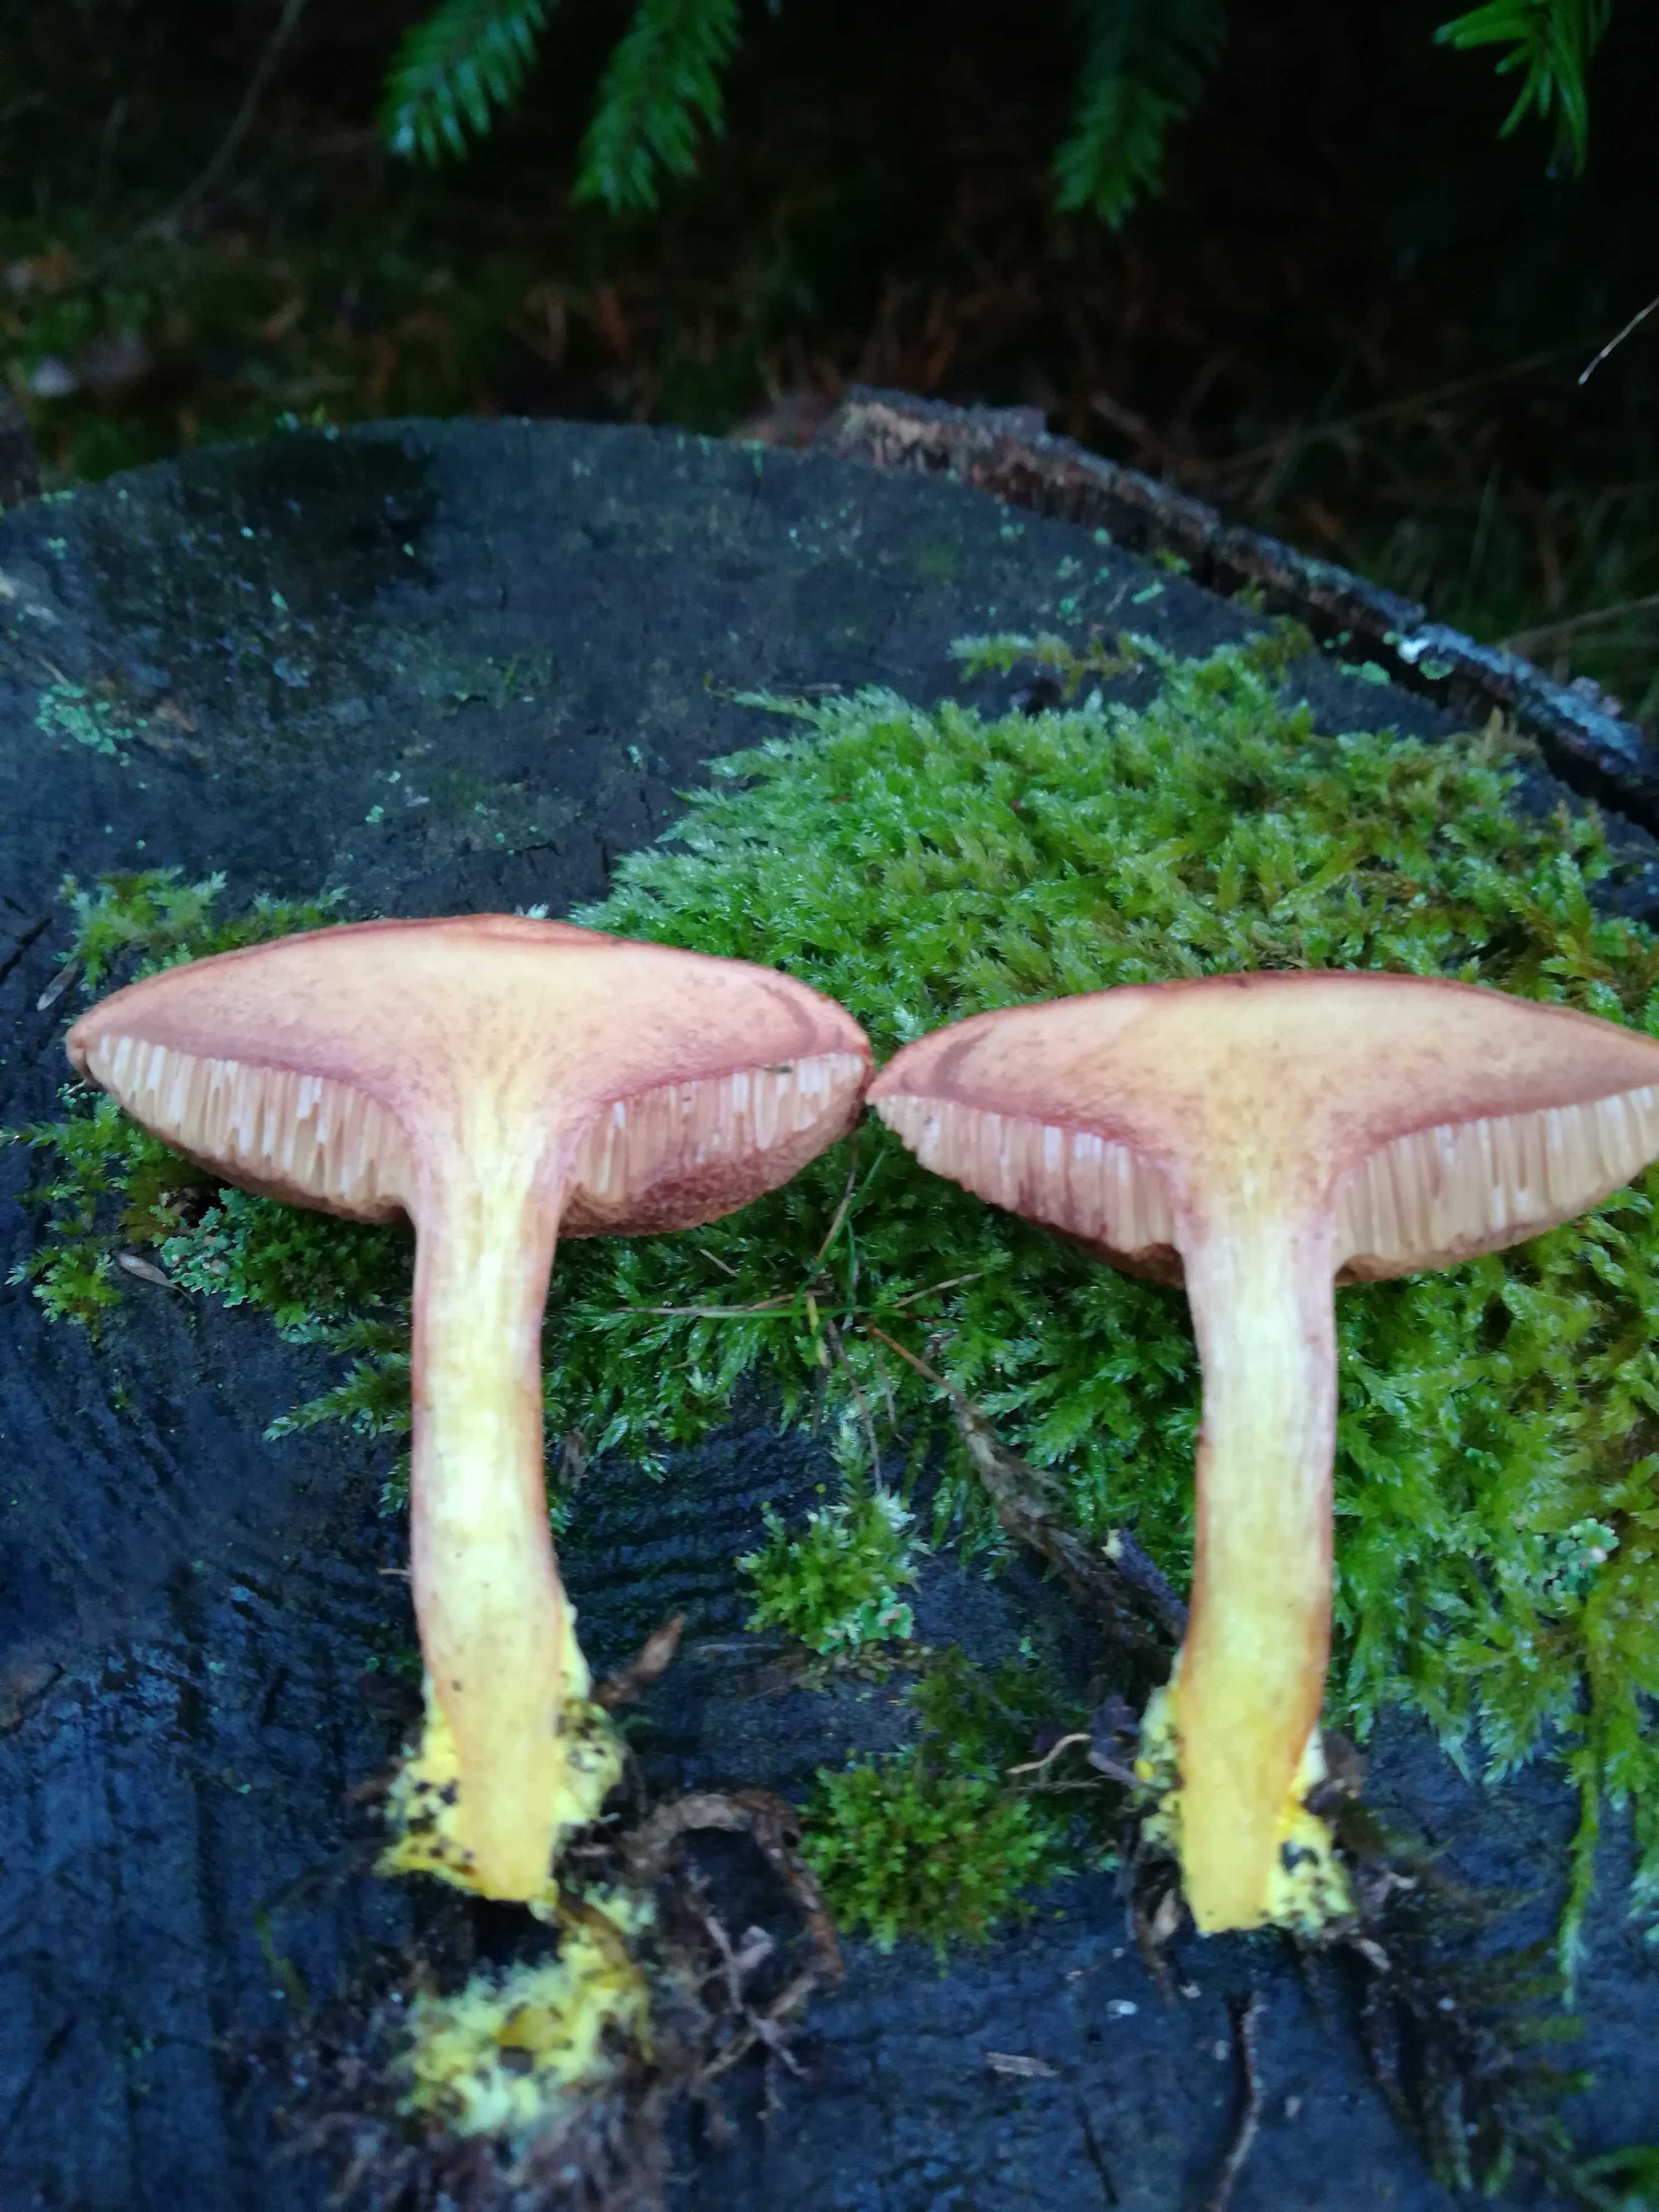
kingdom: Fungi
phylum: Basidiomycota
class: Agaricomycetes
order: Boletales
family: Boletaceae
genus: Chalciporus
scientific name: Chalciporus piperatus
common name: peberrørhat
